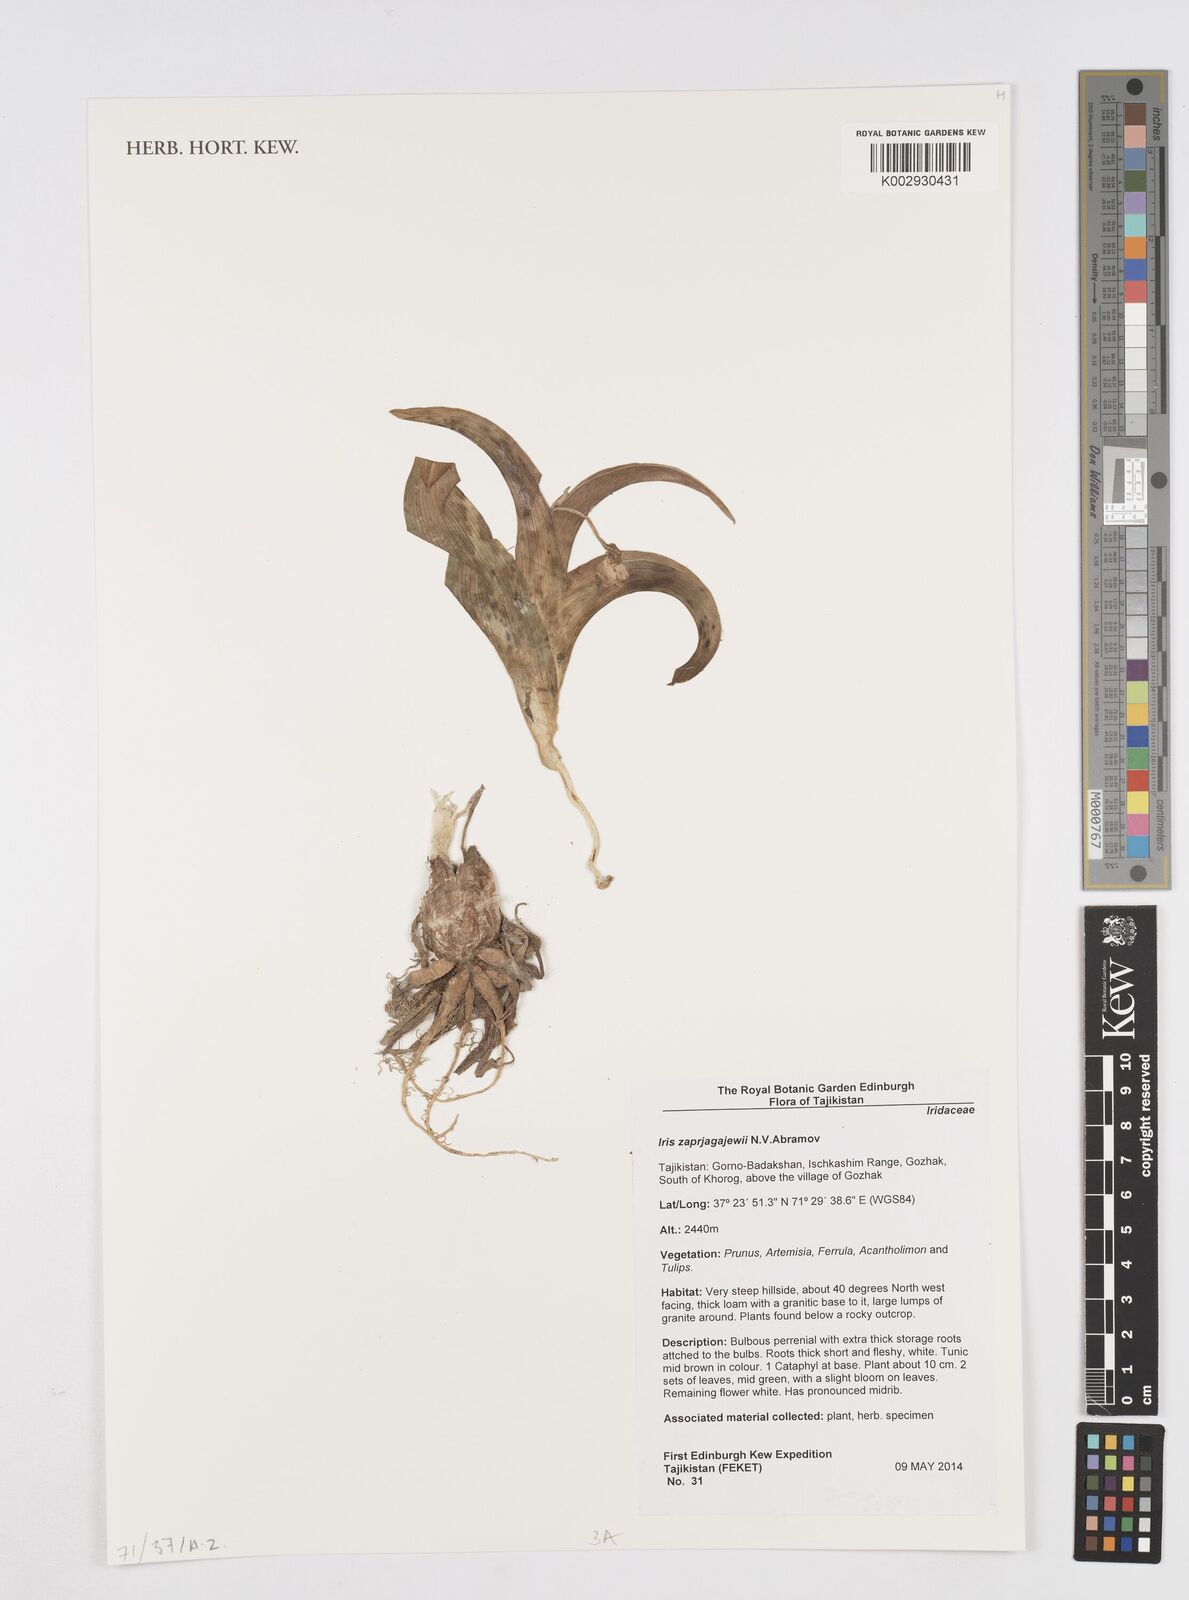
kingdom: Plantae
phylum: Tracheophyta
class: Liliopsida
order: Asparagales
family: Iridaceae
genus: Iris
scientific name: Iris zaprjagajevii
